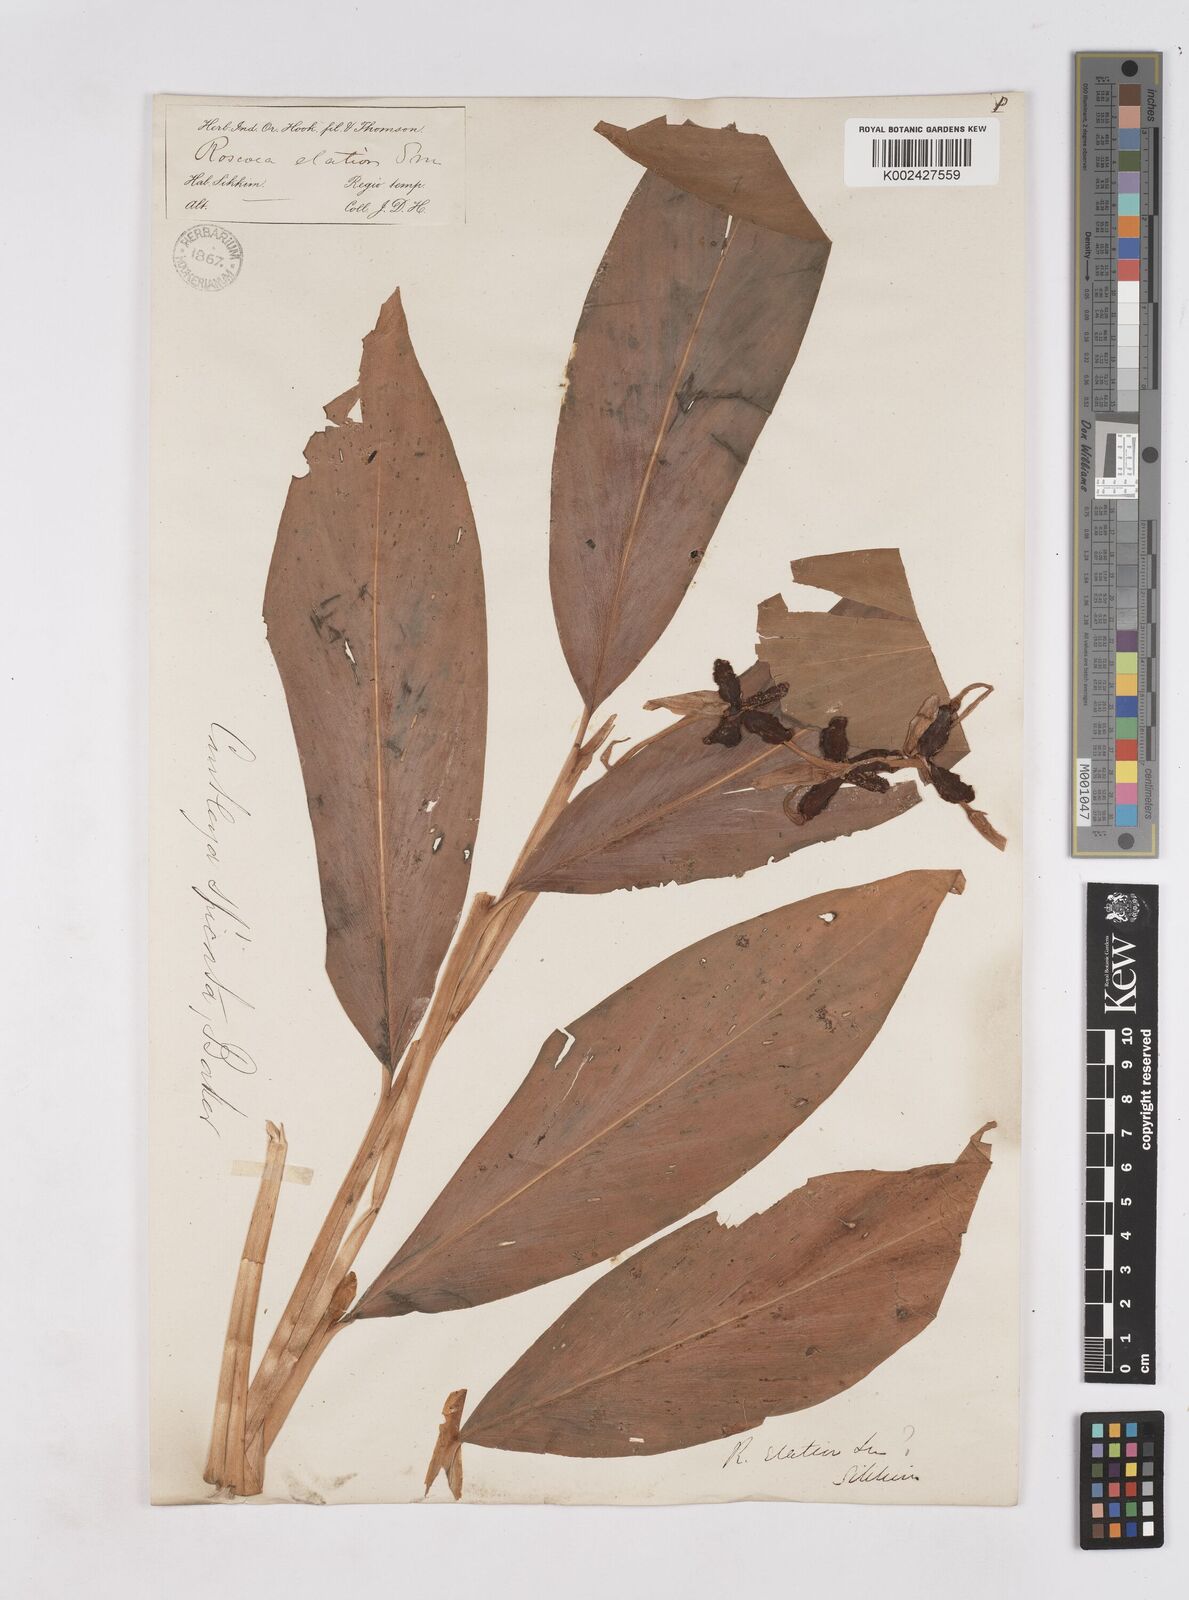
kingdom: Plantae
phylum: Tracheophyta
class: Liliopsida
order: Zingiberales
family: Zingiberaceae
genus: Cautleya
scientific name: Cautleya spicata
